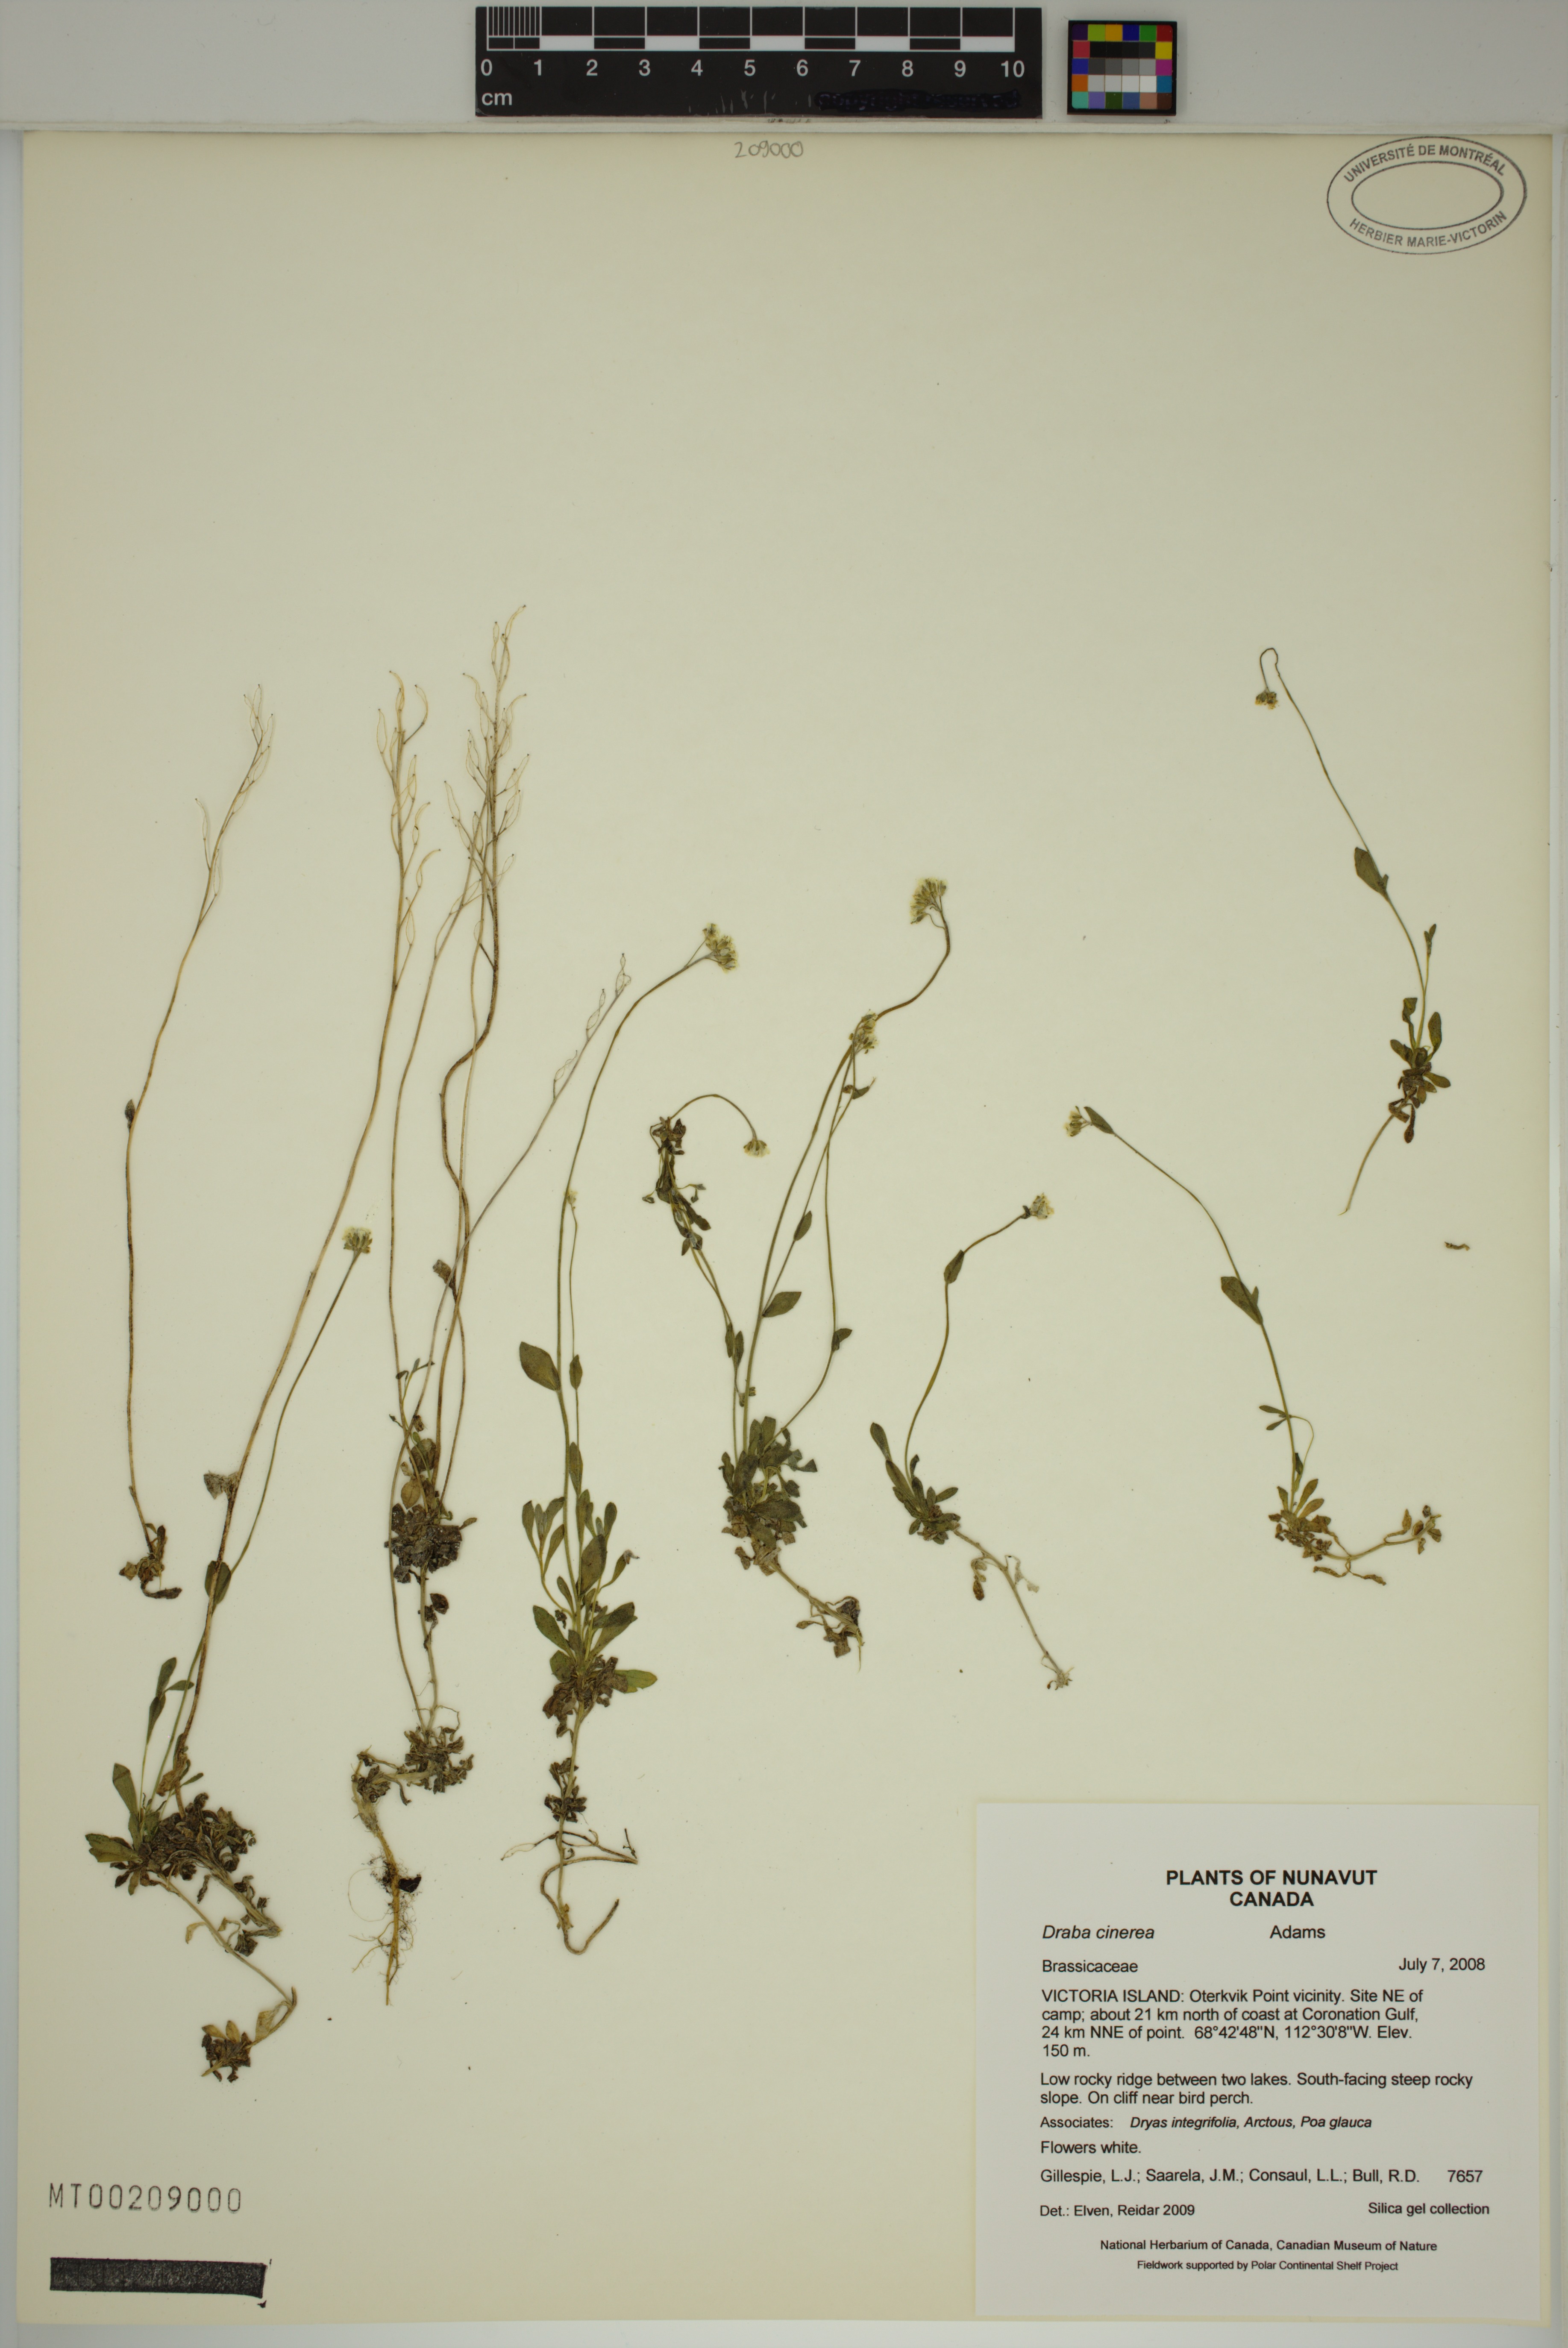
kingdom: Plantae
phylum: Tracheophyta
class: Magnoliopsida
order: Brassicales
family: Brassicaceae
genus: Draba
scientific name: Draba cinerea
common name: Ash-coloured whitlow-grass
